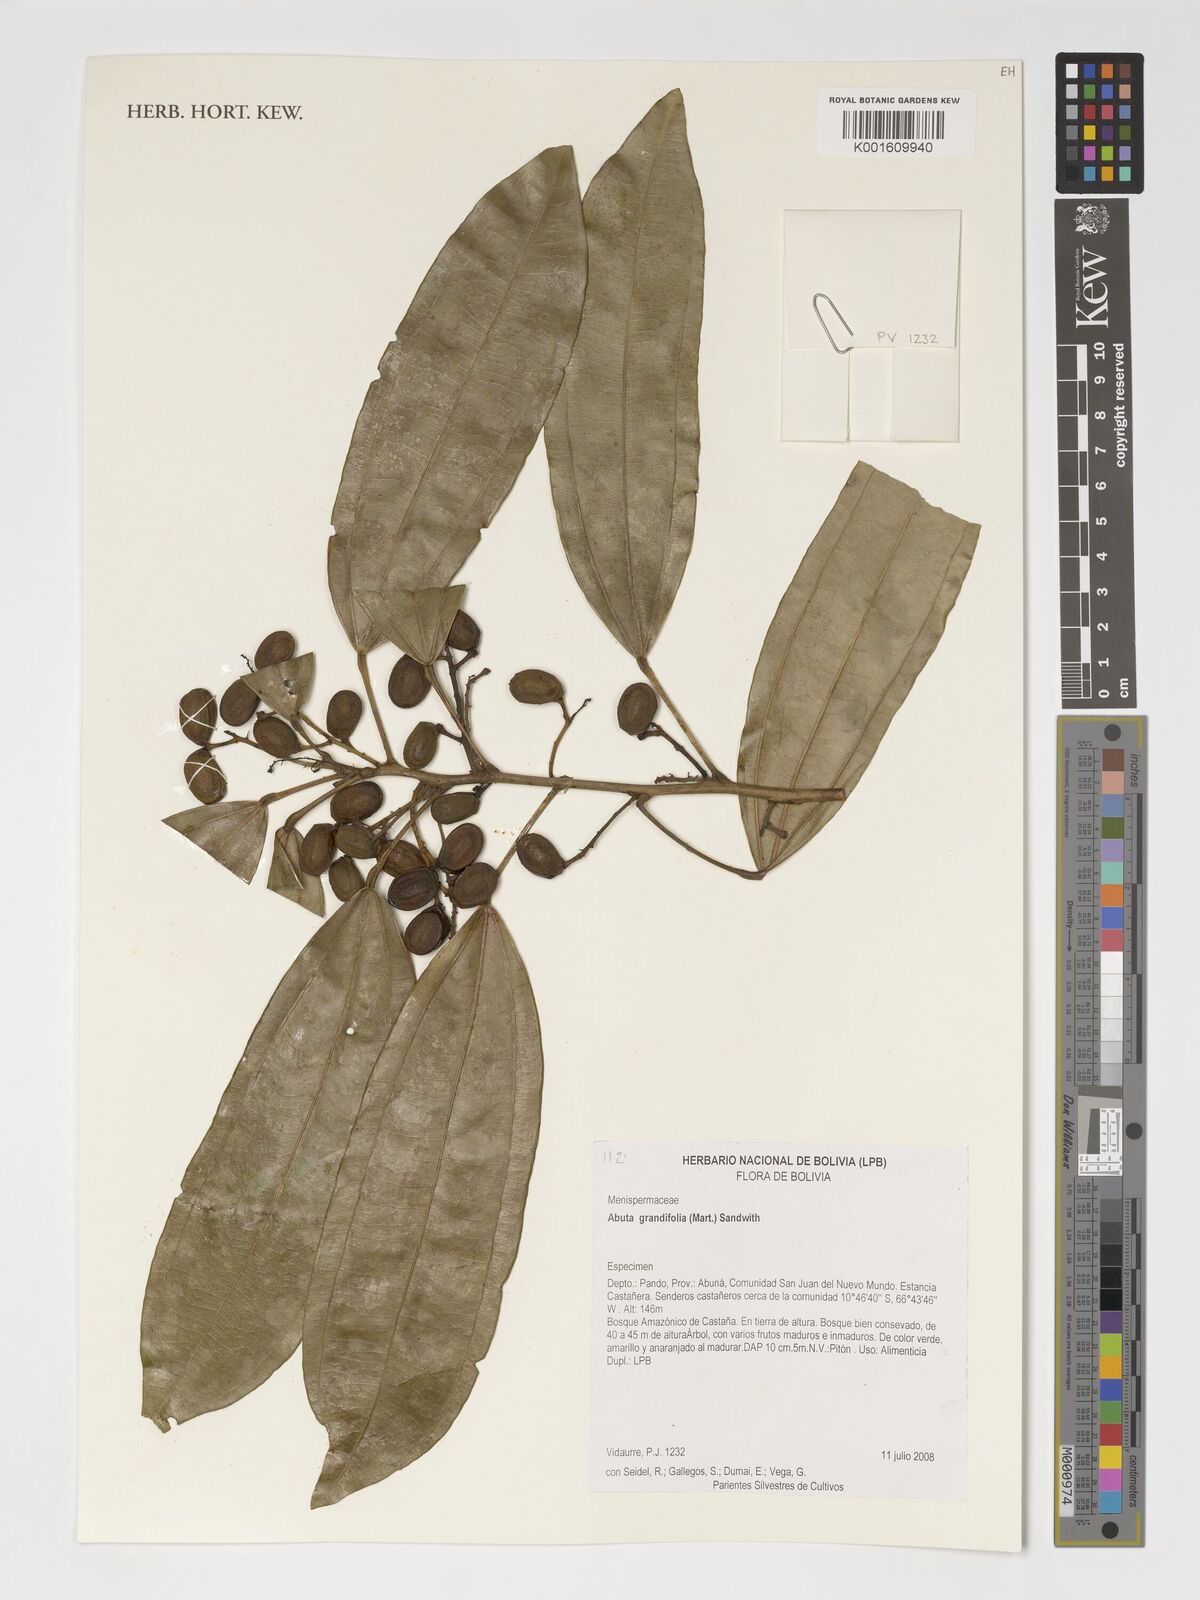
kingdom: Plantae
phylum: Tracheophyta
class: Magnoliopsida
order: Ranunculales
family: Menispermaceae
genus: Abuta
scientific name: Abuta grandifolia
